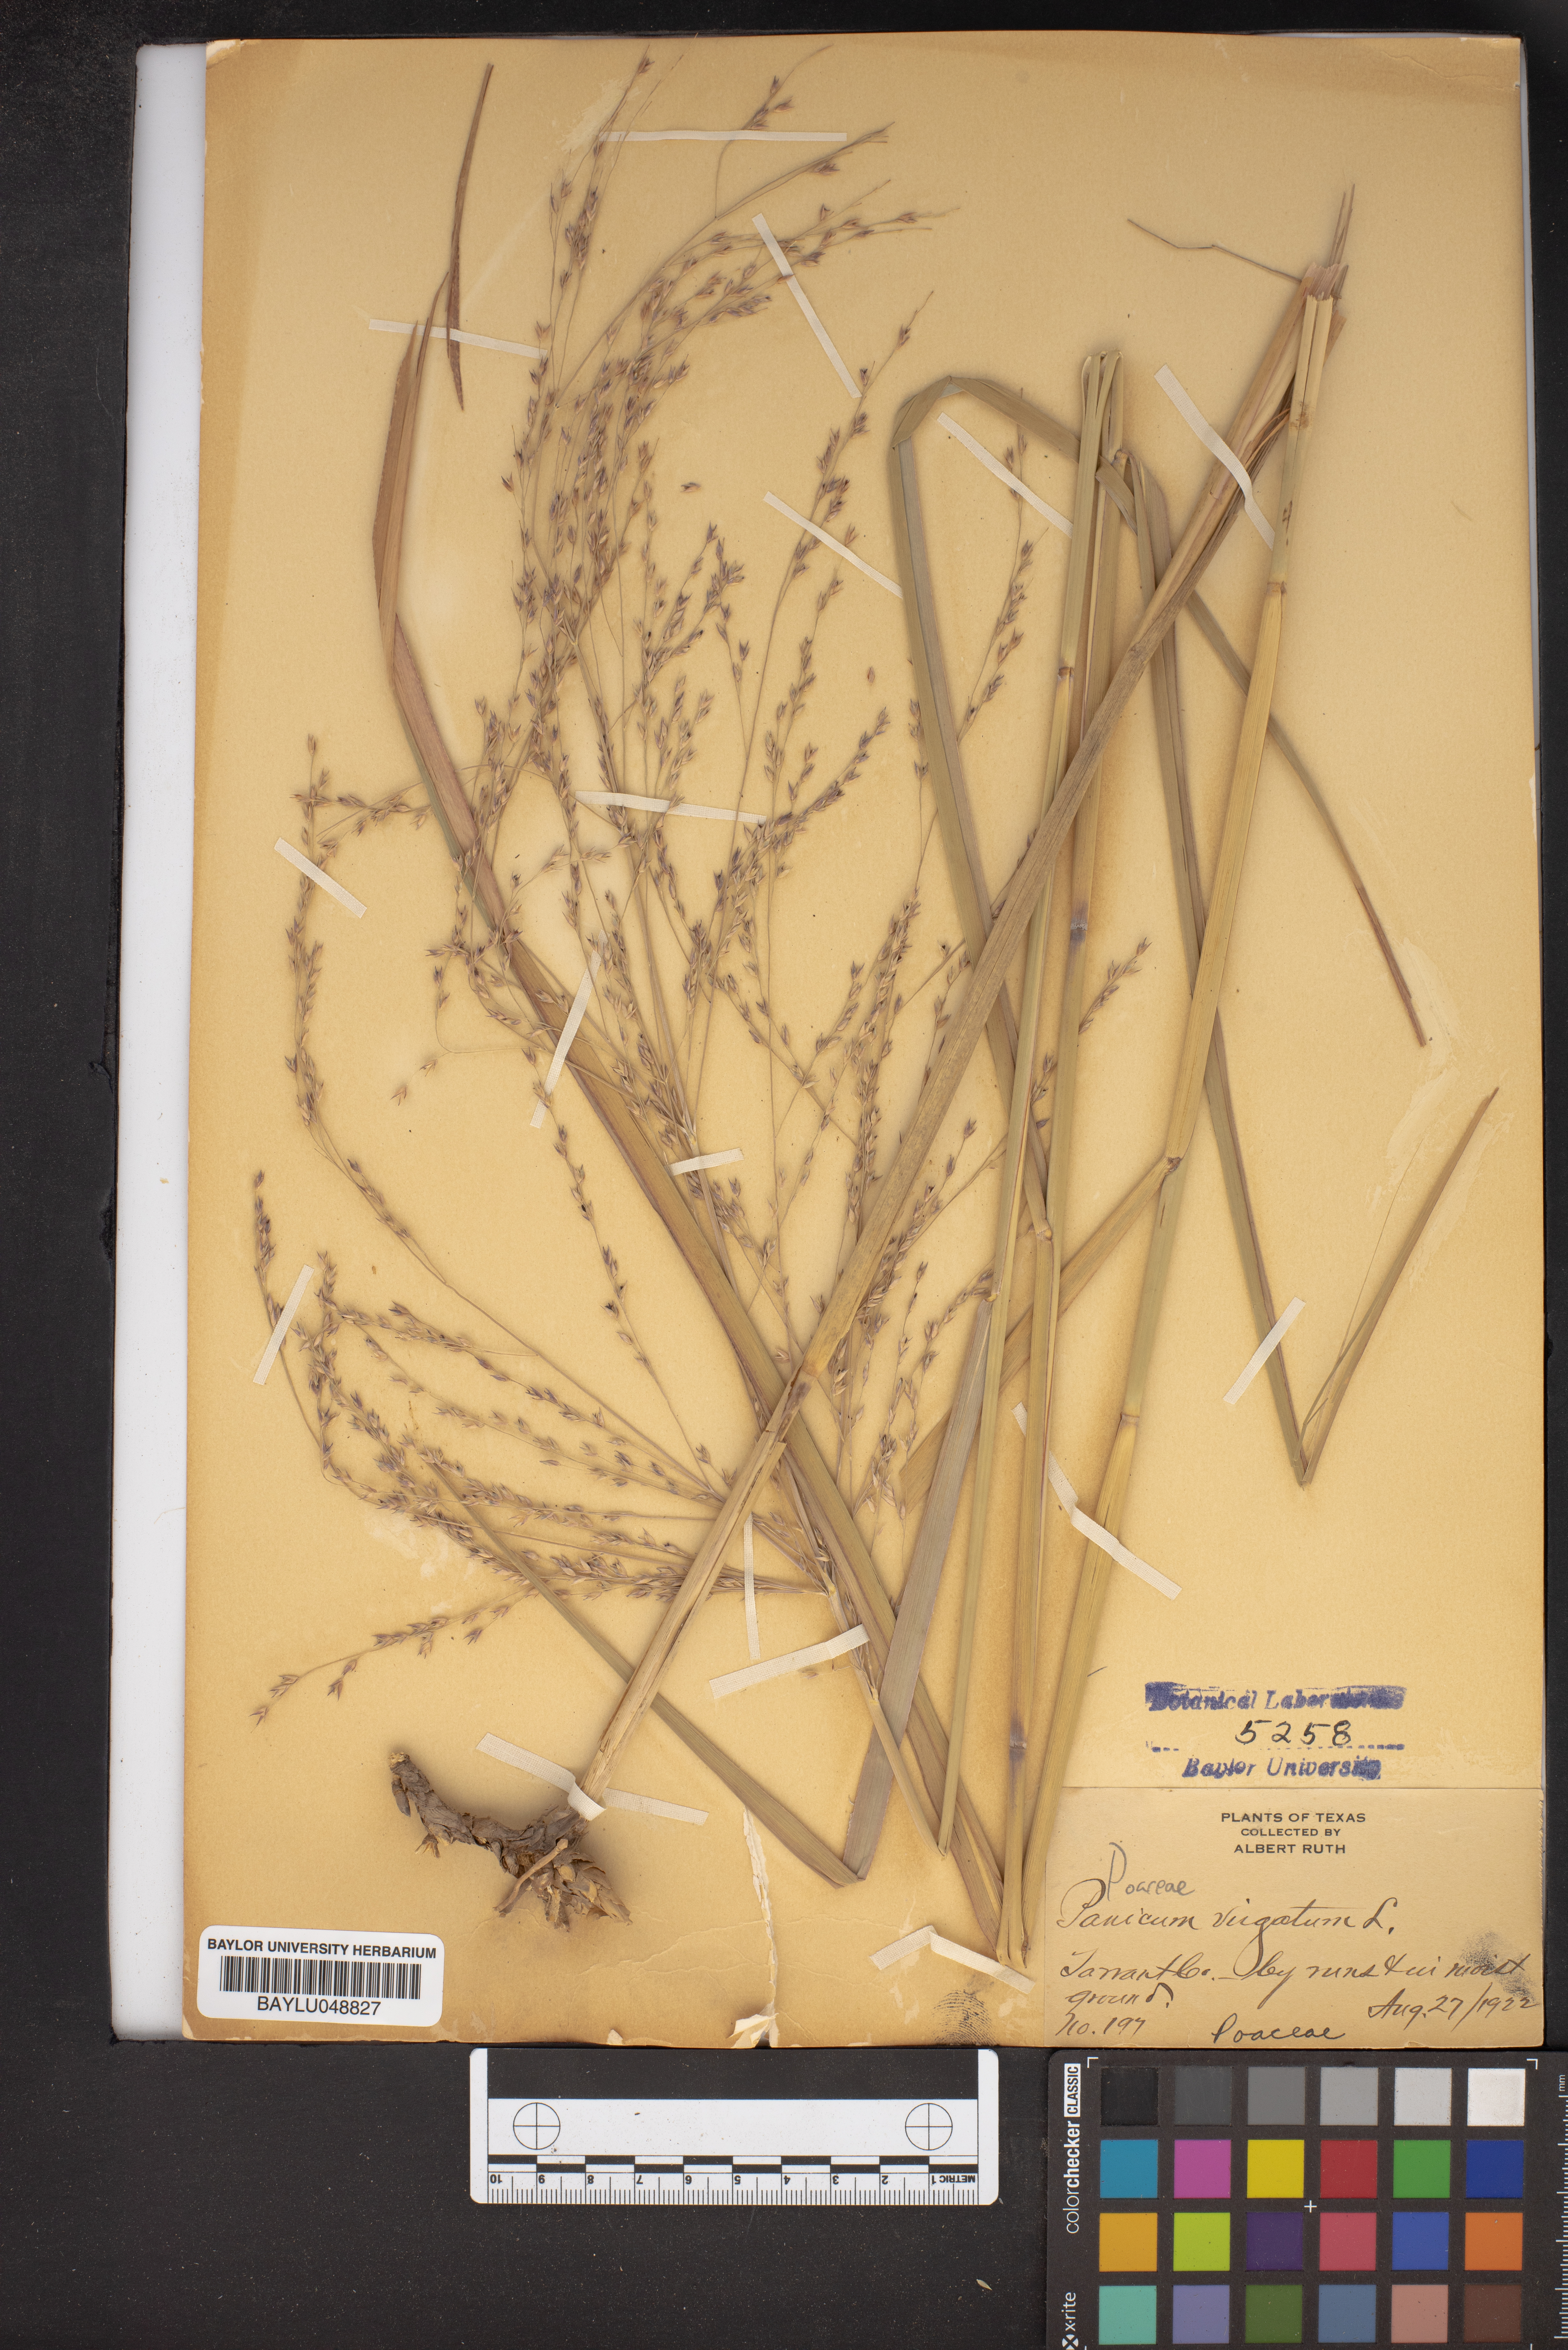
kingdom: Plantae
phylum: Tracheophyta
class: Liliopsida
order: Poales
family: Poaceae
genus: Panicum
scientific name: Panicum virgatum
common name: Switchgrass
